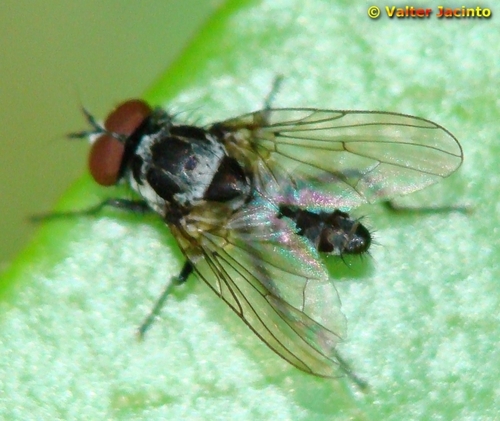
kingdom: Animalia
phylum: Arthropoda
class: Insecta
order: Diptera
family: Anthomyiidae
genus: Anthomyia
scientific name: Anthomyia quinquemaculata
